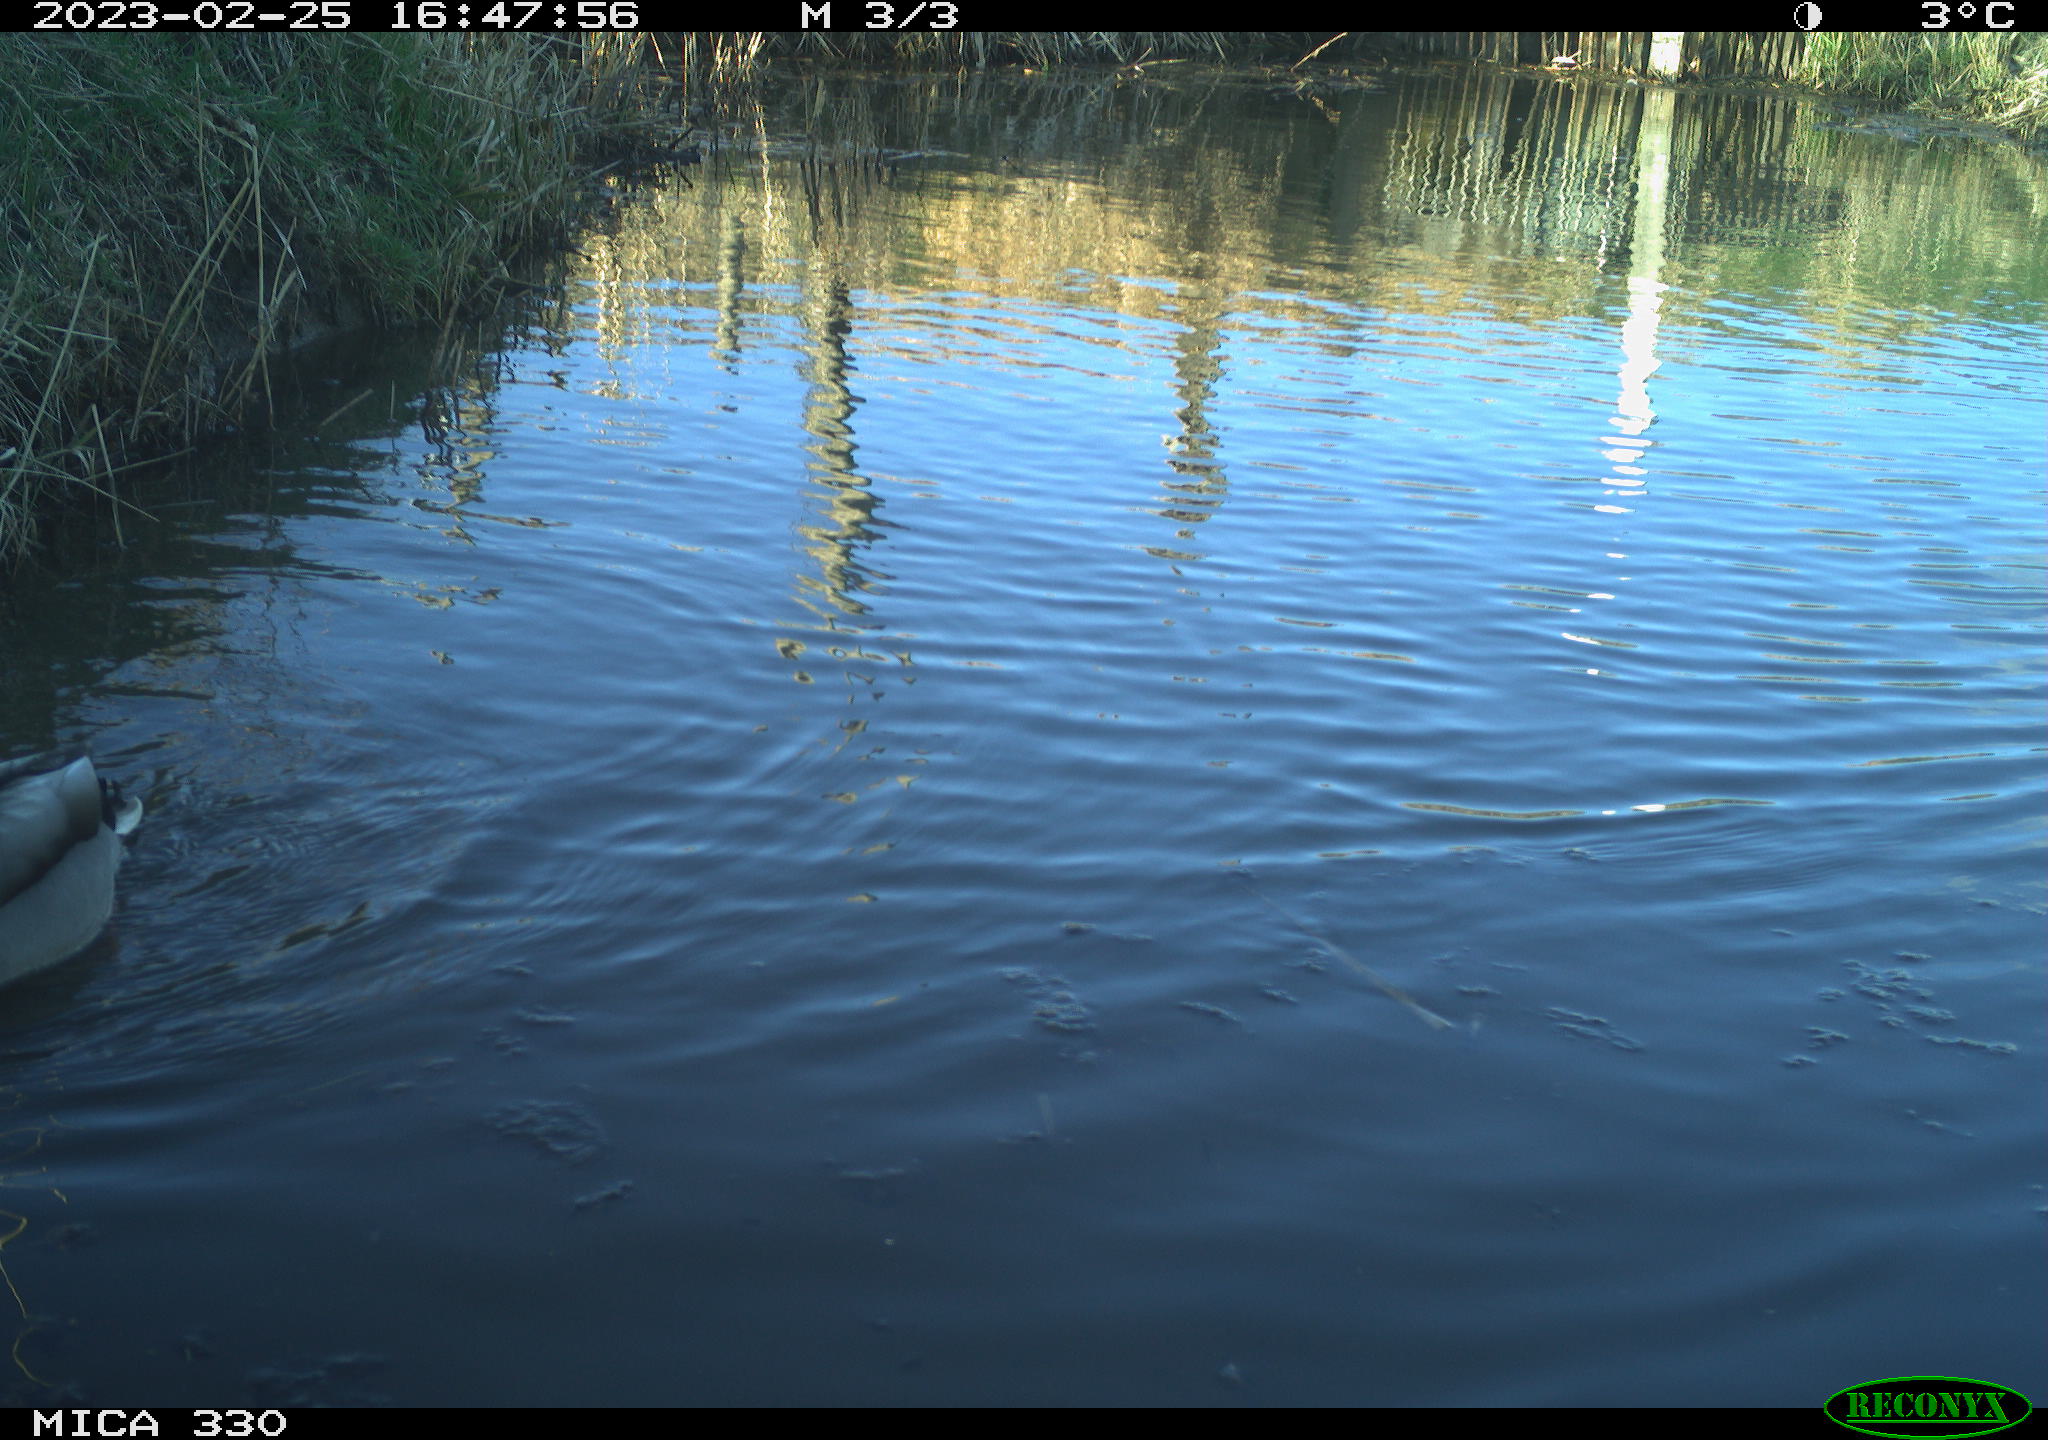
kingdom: Animalia
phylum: Chordata
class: Aves
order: Anseriformes
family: Anatidae
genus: Anas
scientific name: Anas
